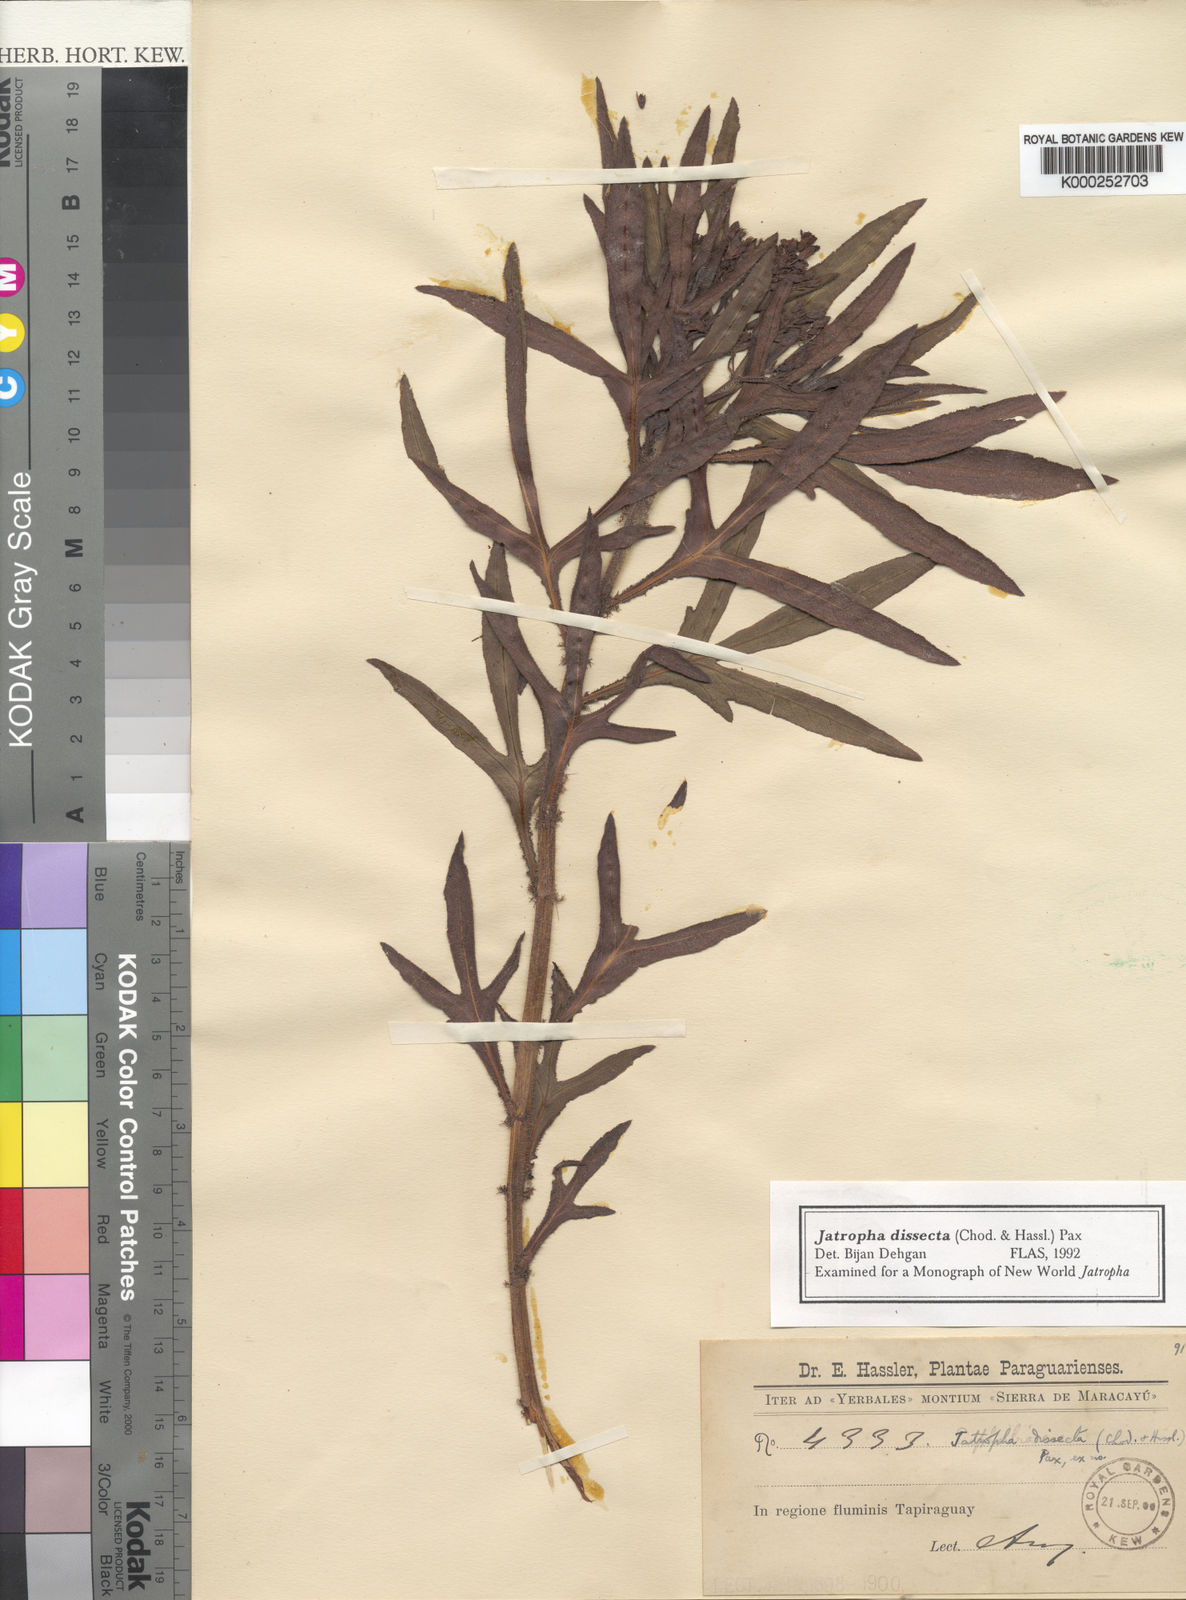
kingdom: Plantae
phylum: Tracheophyta
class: Magnoliopsida
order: Malpighiales
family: Euphorbiaceae
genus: Jatropha
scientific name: Jatropha dissecta
